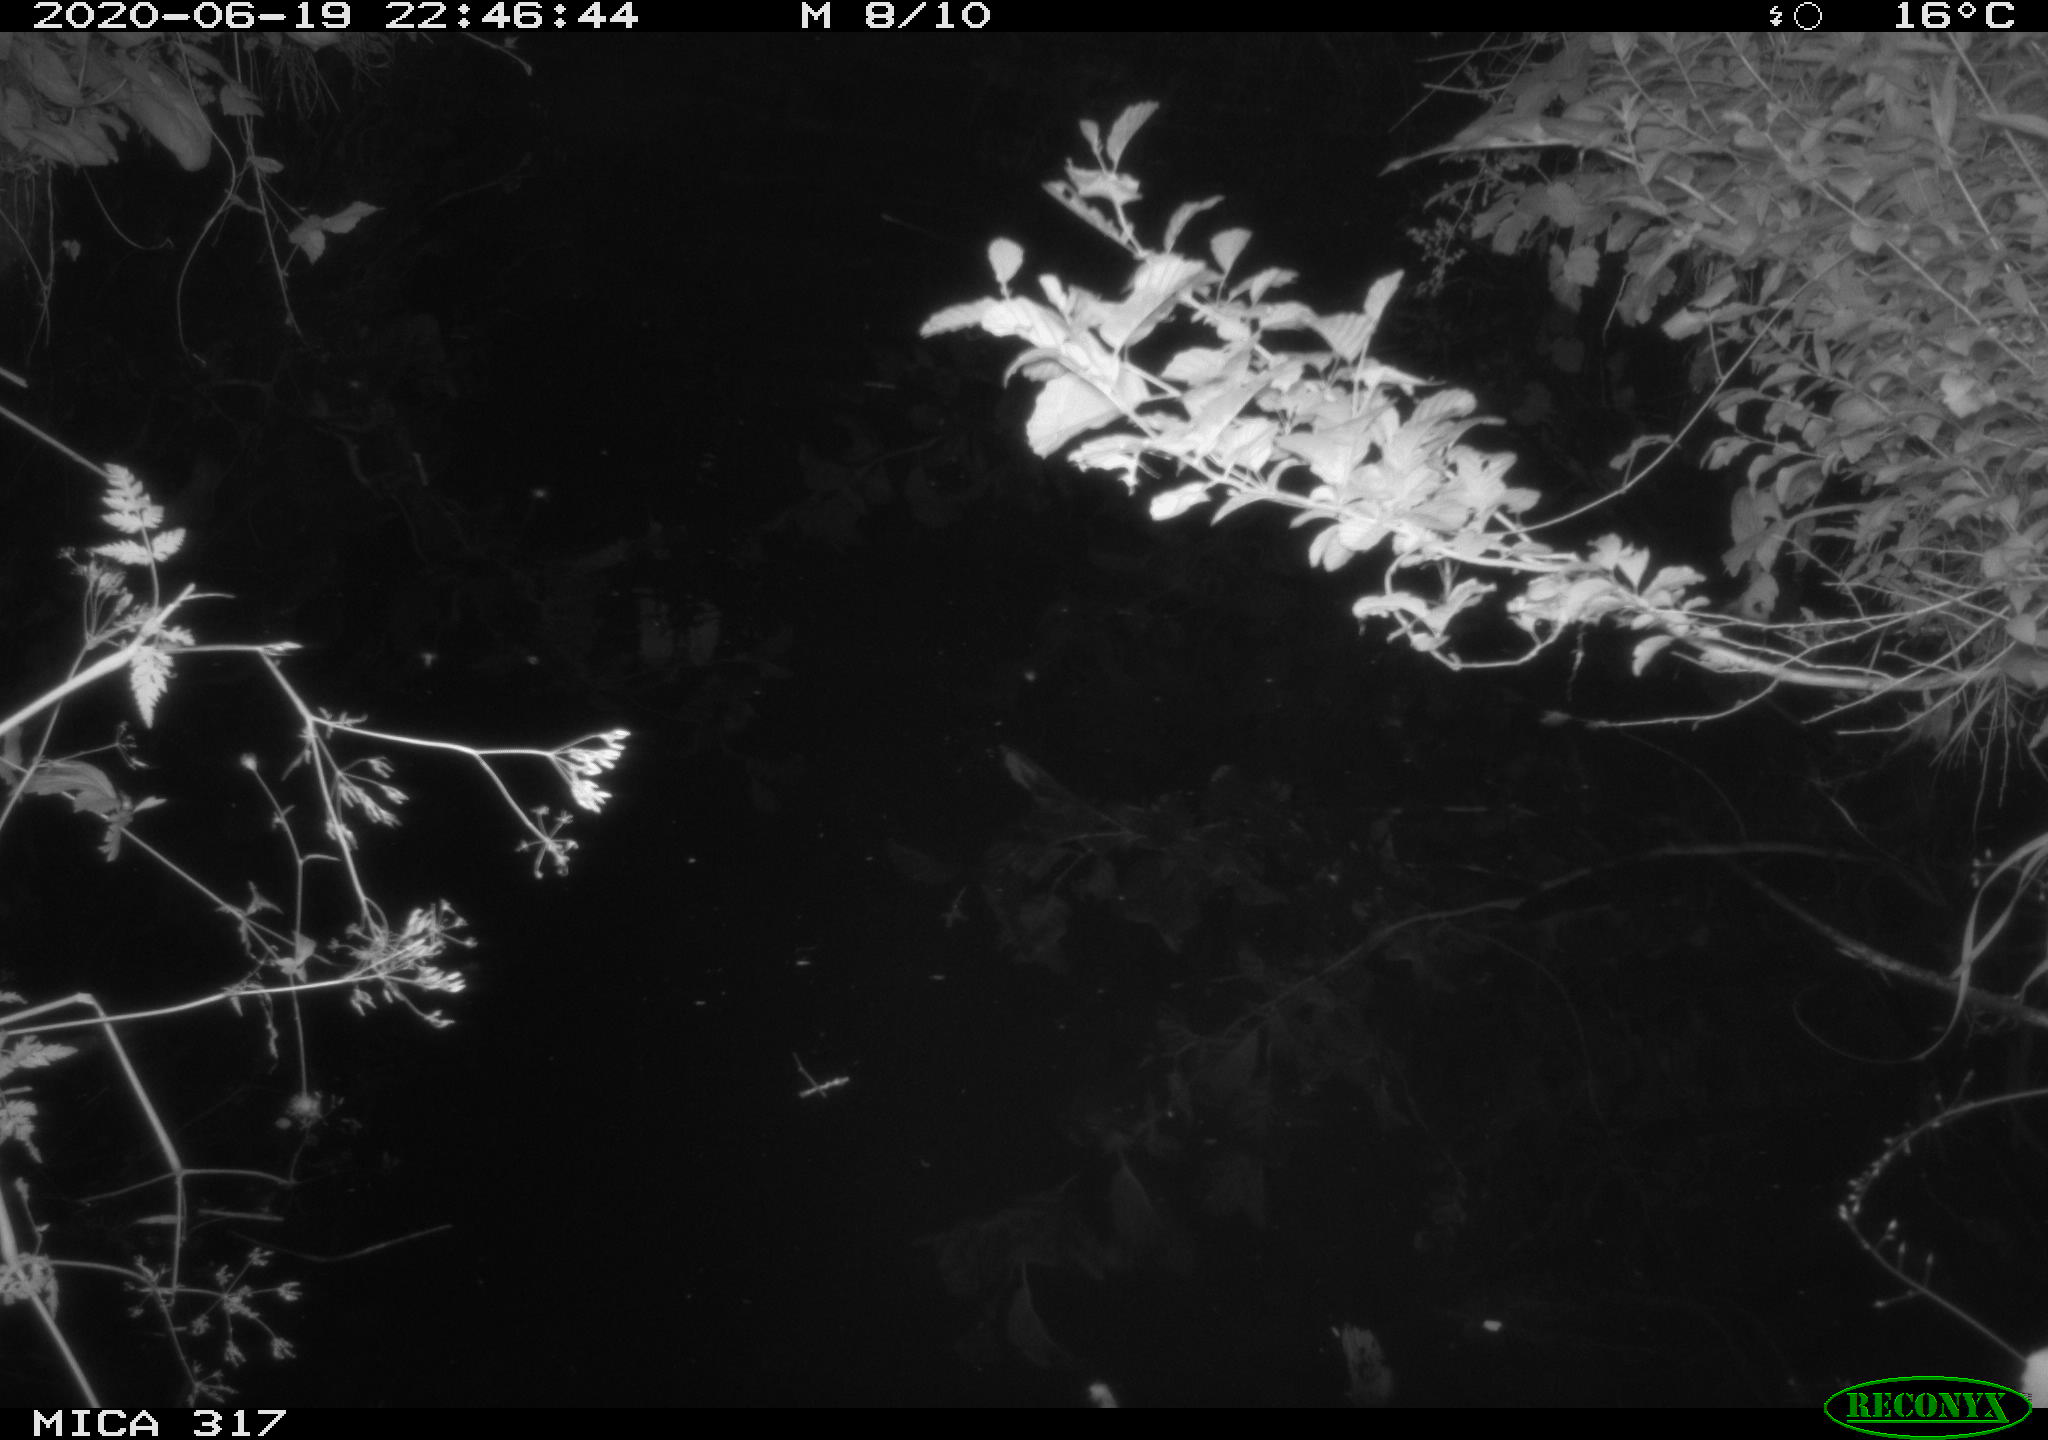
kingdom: Animalia
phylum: Chordata
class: Aves
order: Anseriformes
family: Anatidae
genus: Anas
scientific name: Anas platyrhynchos
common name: Mallard
